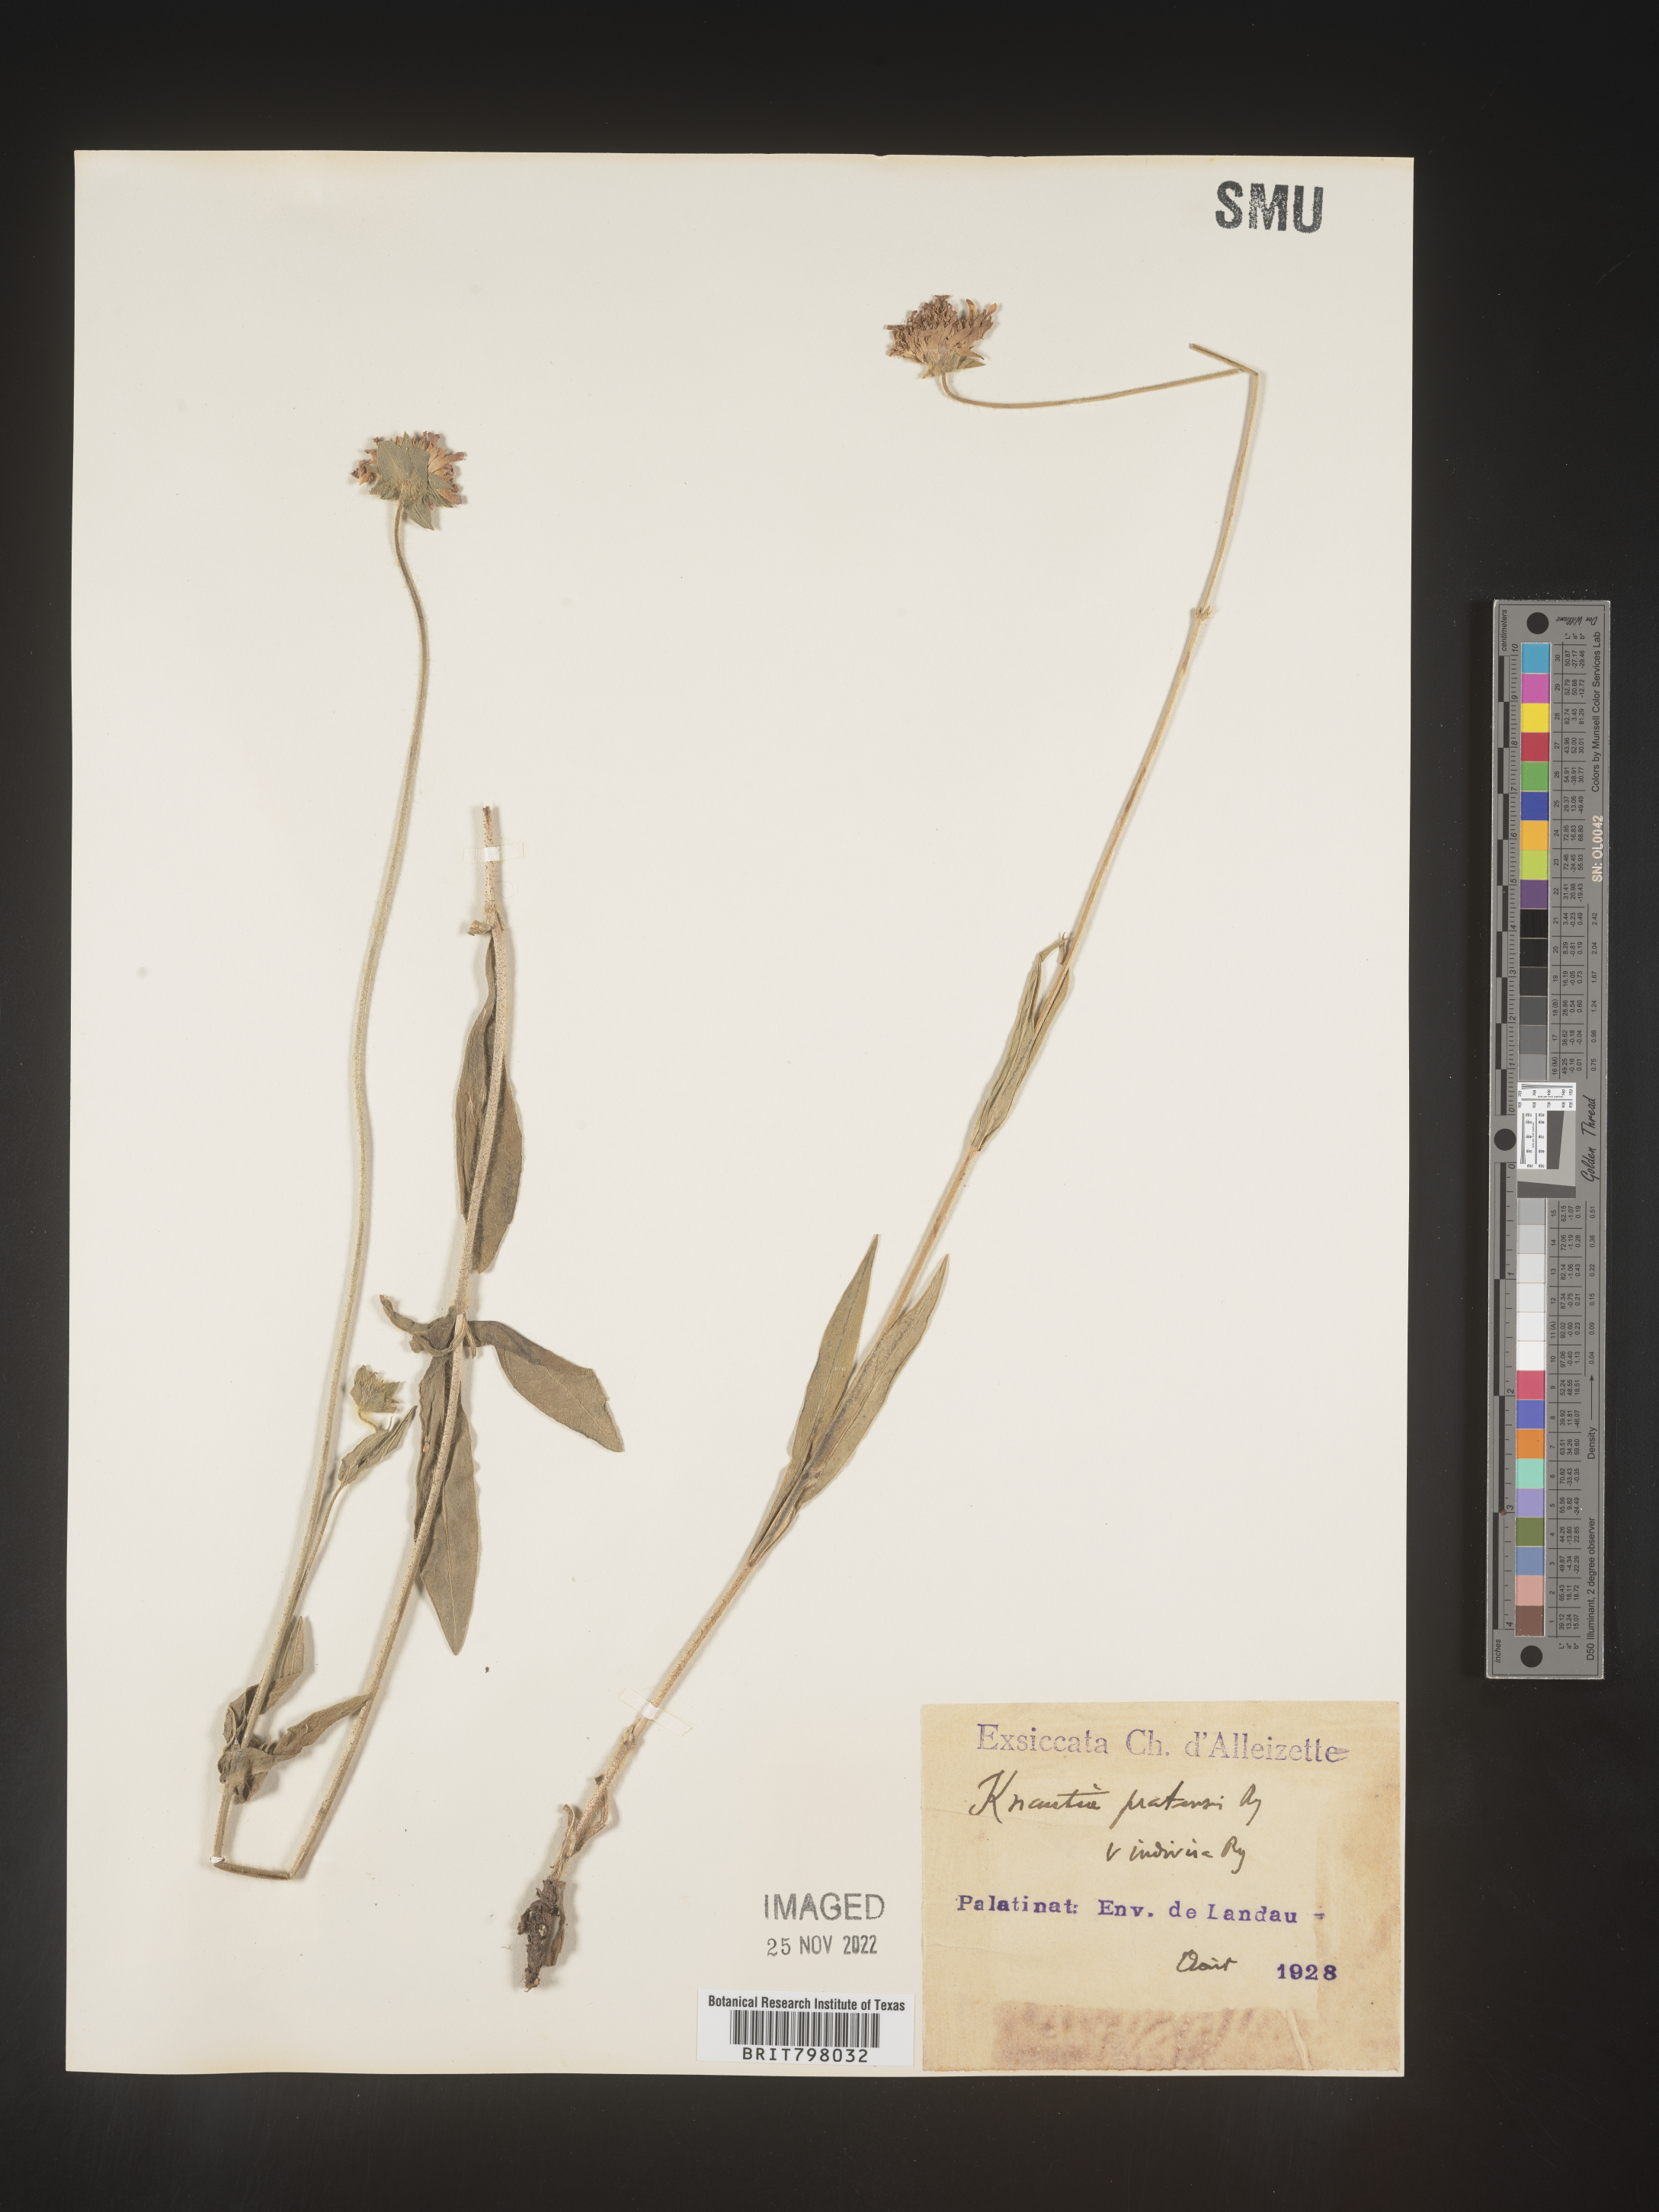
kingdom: Plantae
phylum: Tracheophyta
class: Magnoliopsida
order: Dipsacales
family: Caprifoliaceae
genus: Knautia
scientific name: Knautia
